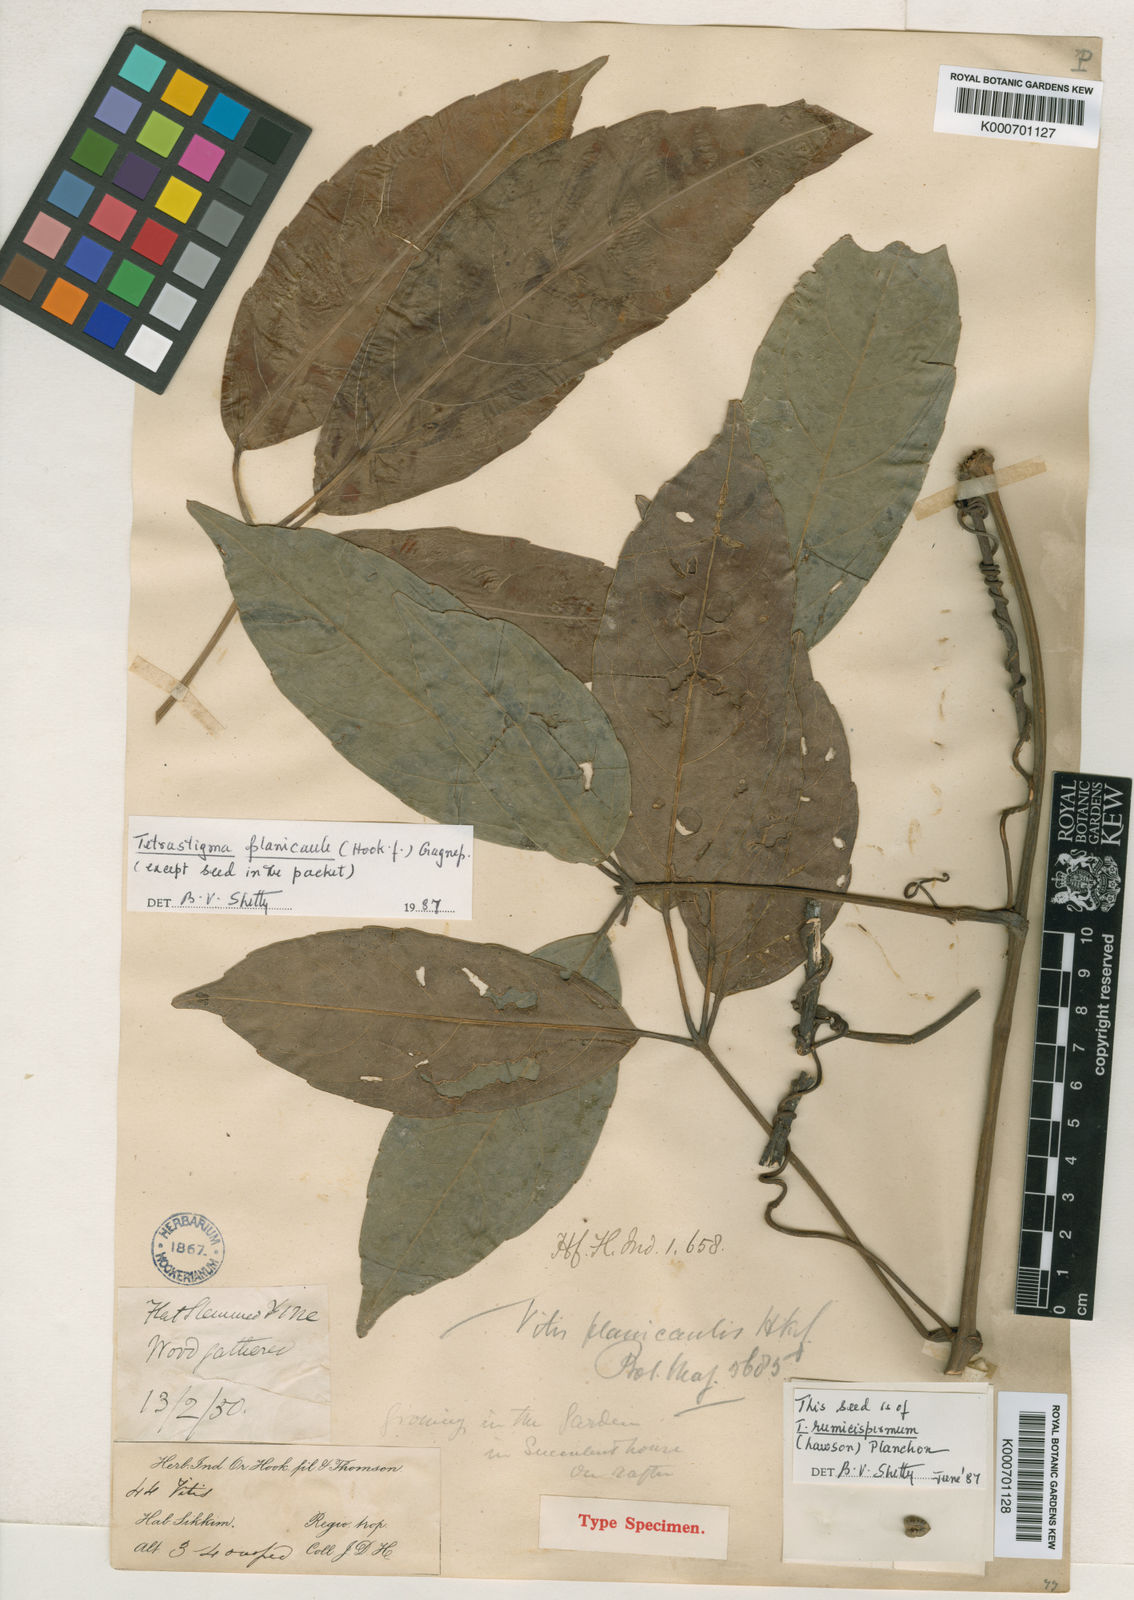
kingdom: Plantae
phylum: Tracheophyta
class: Magnoliopsida
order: Vitales
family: Vitaceae
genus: Tetrastigma
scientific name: Tetrastigma planicaule
